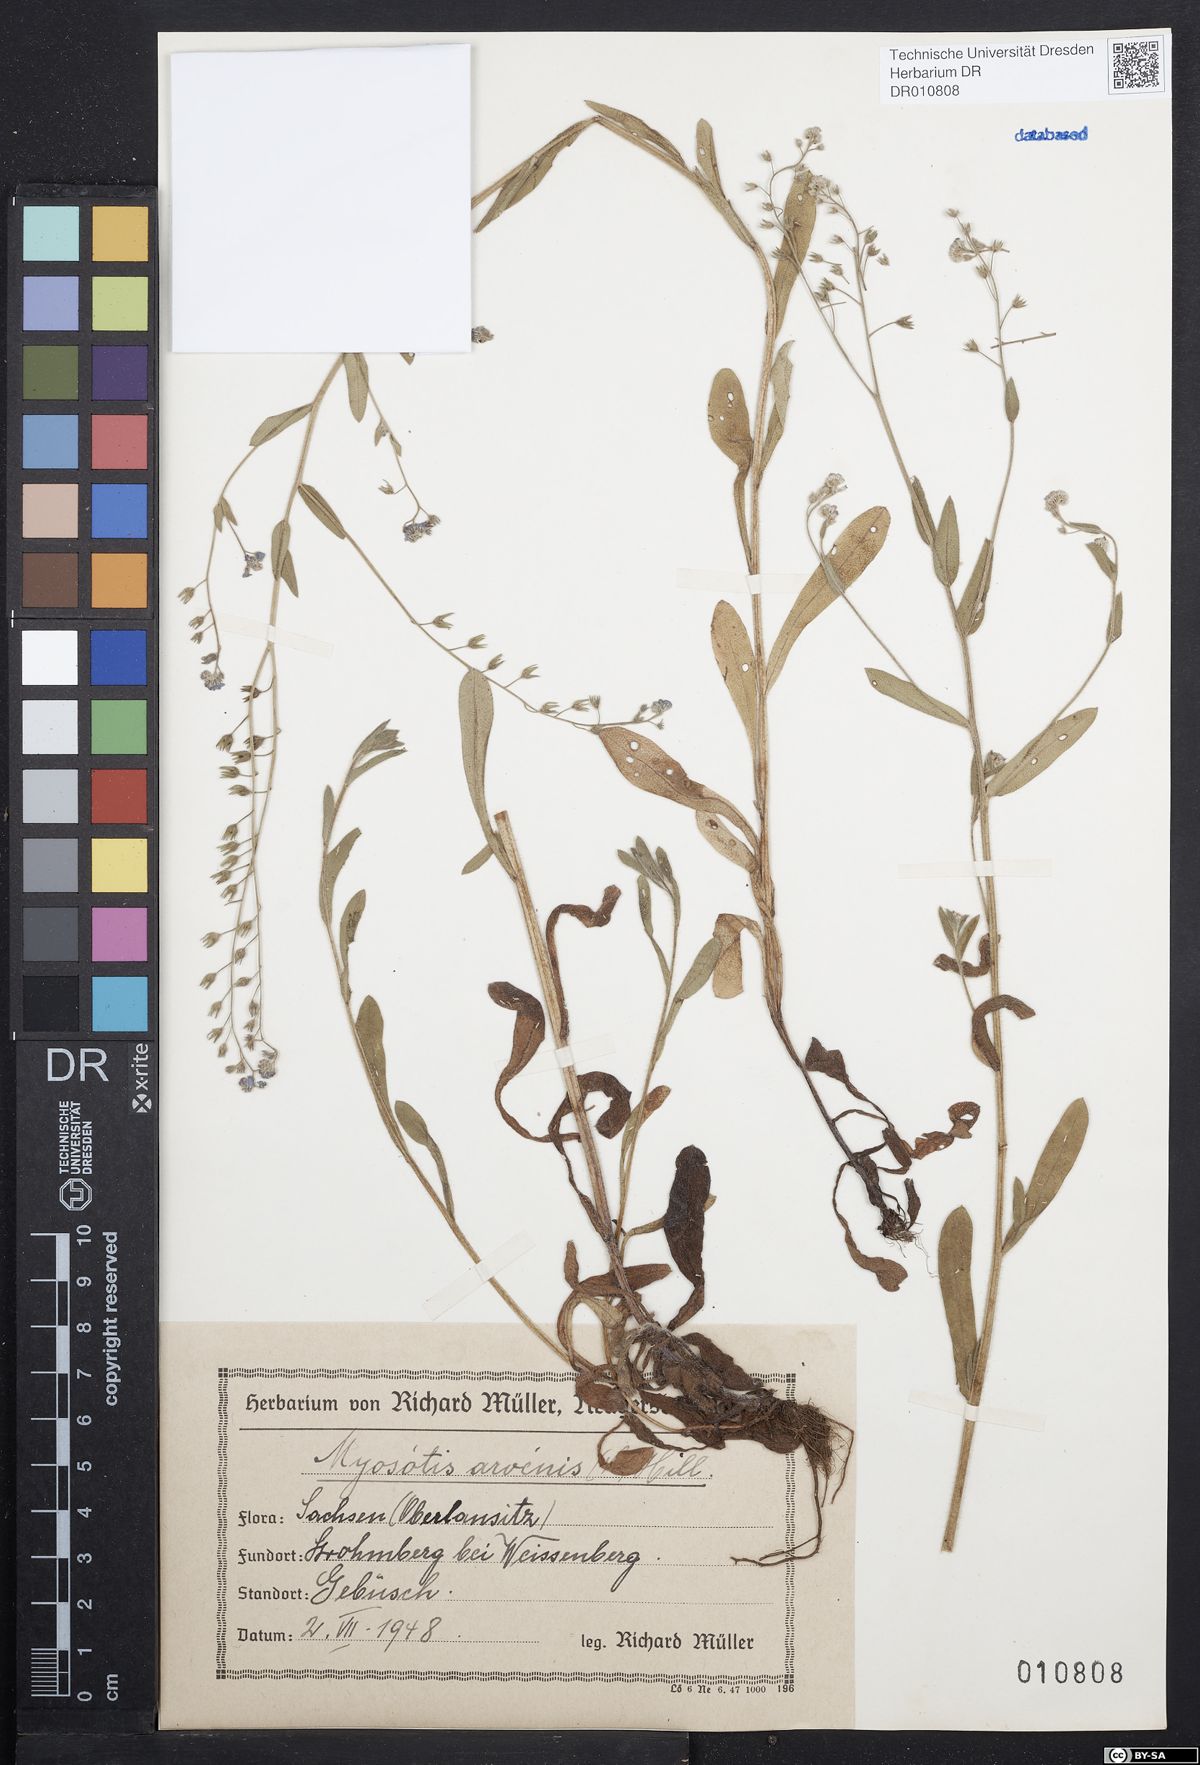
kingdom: Plantae
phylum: Tracheophyta
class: Magnoliopsida
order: Boraginales
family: Boraginaceae
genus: Myosotis
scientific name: Myosotis arvensis
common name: Field forget-me-not
